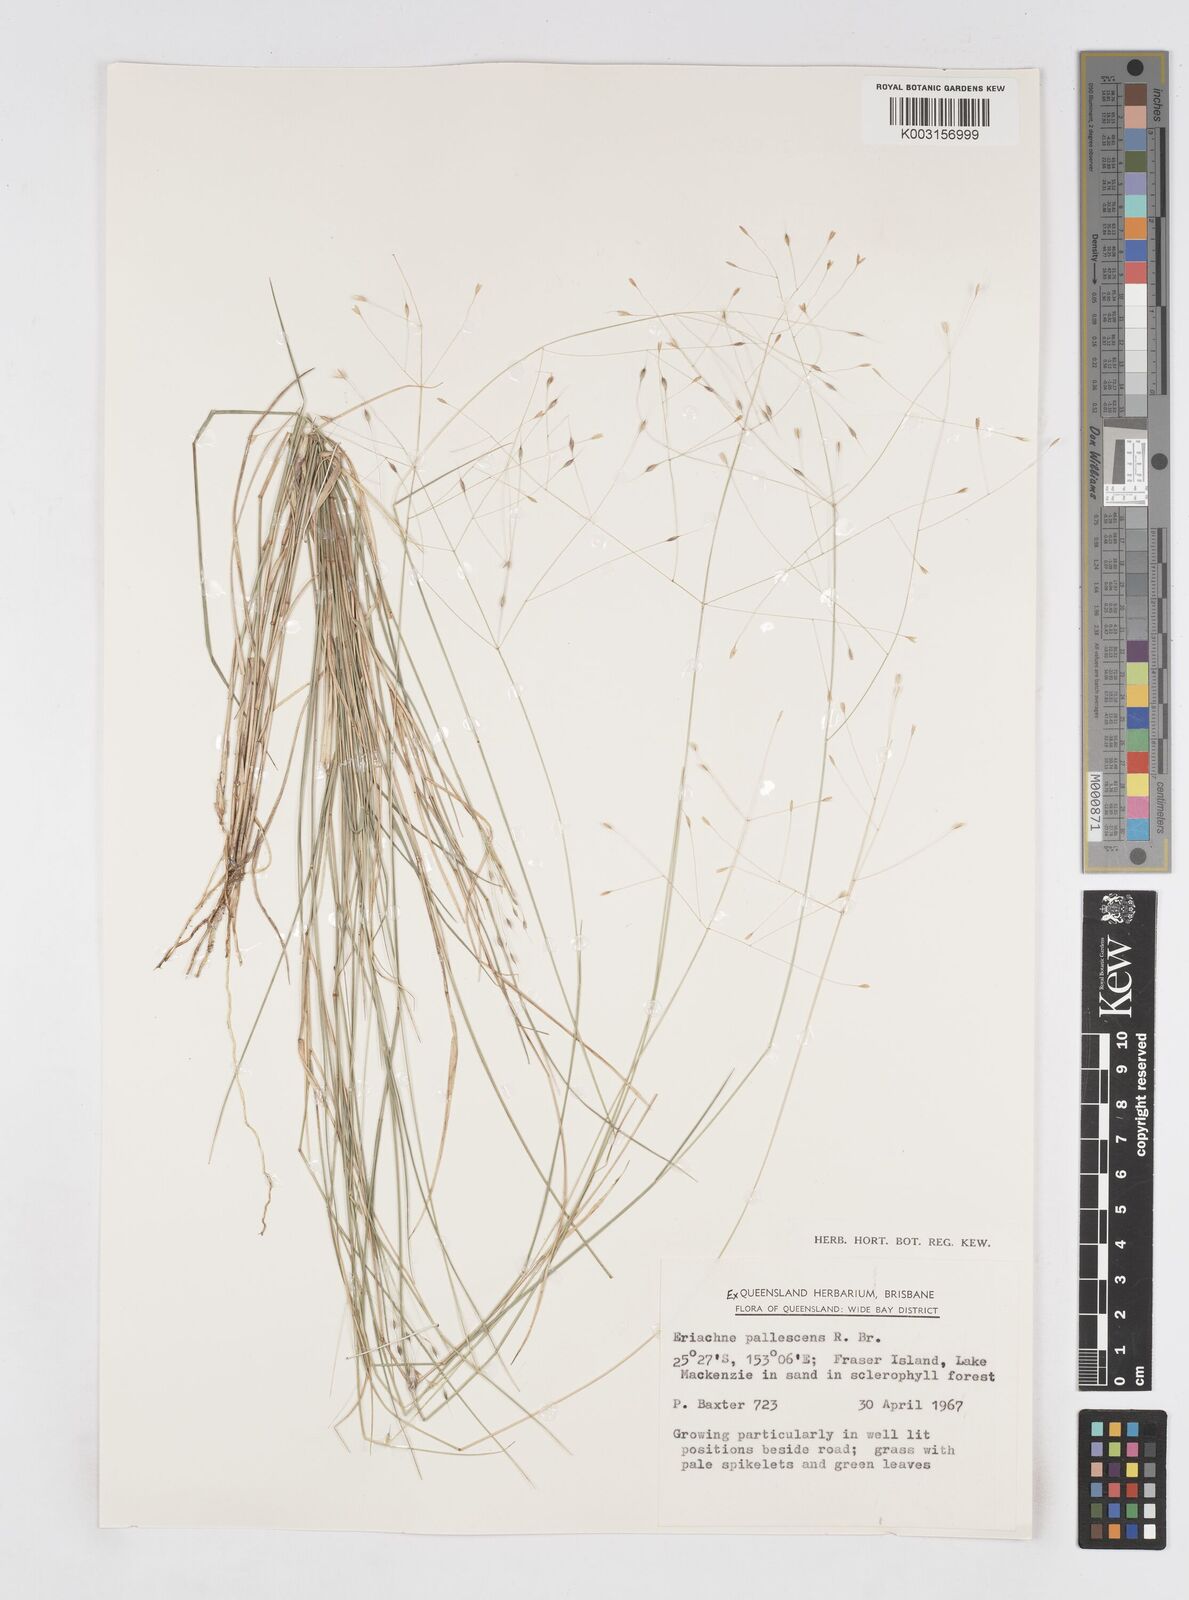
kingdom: Plantae
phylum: Tracheophyta
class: Liliopsida
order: Poales
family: Poaceae
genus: Eriachne
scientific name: Eriachne pallescens
